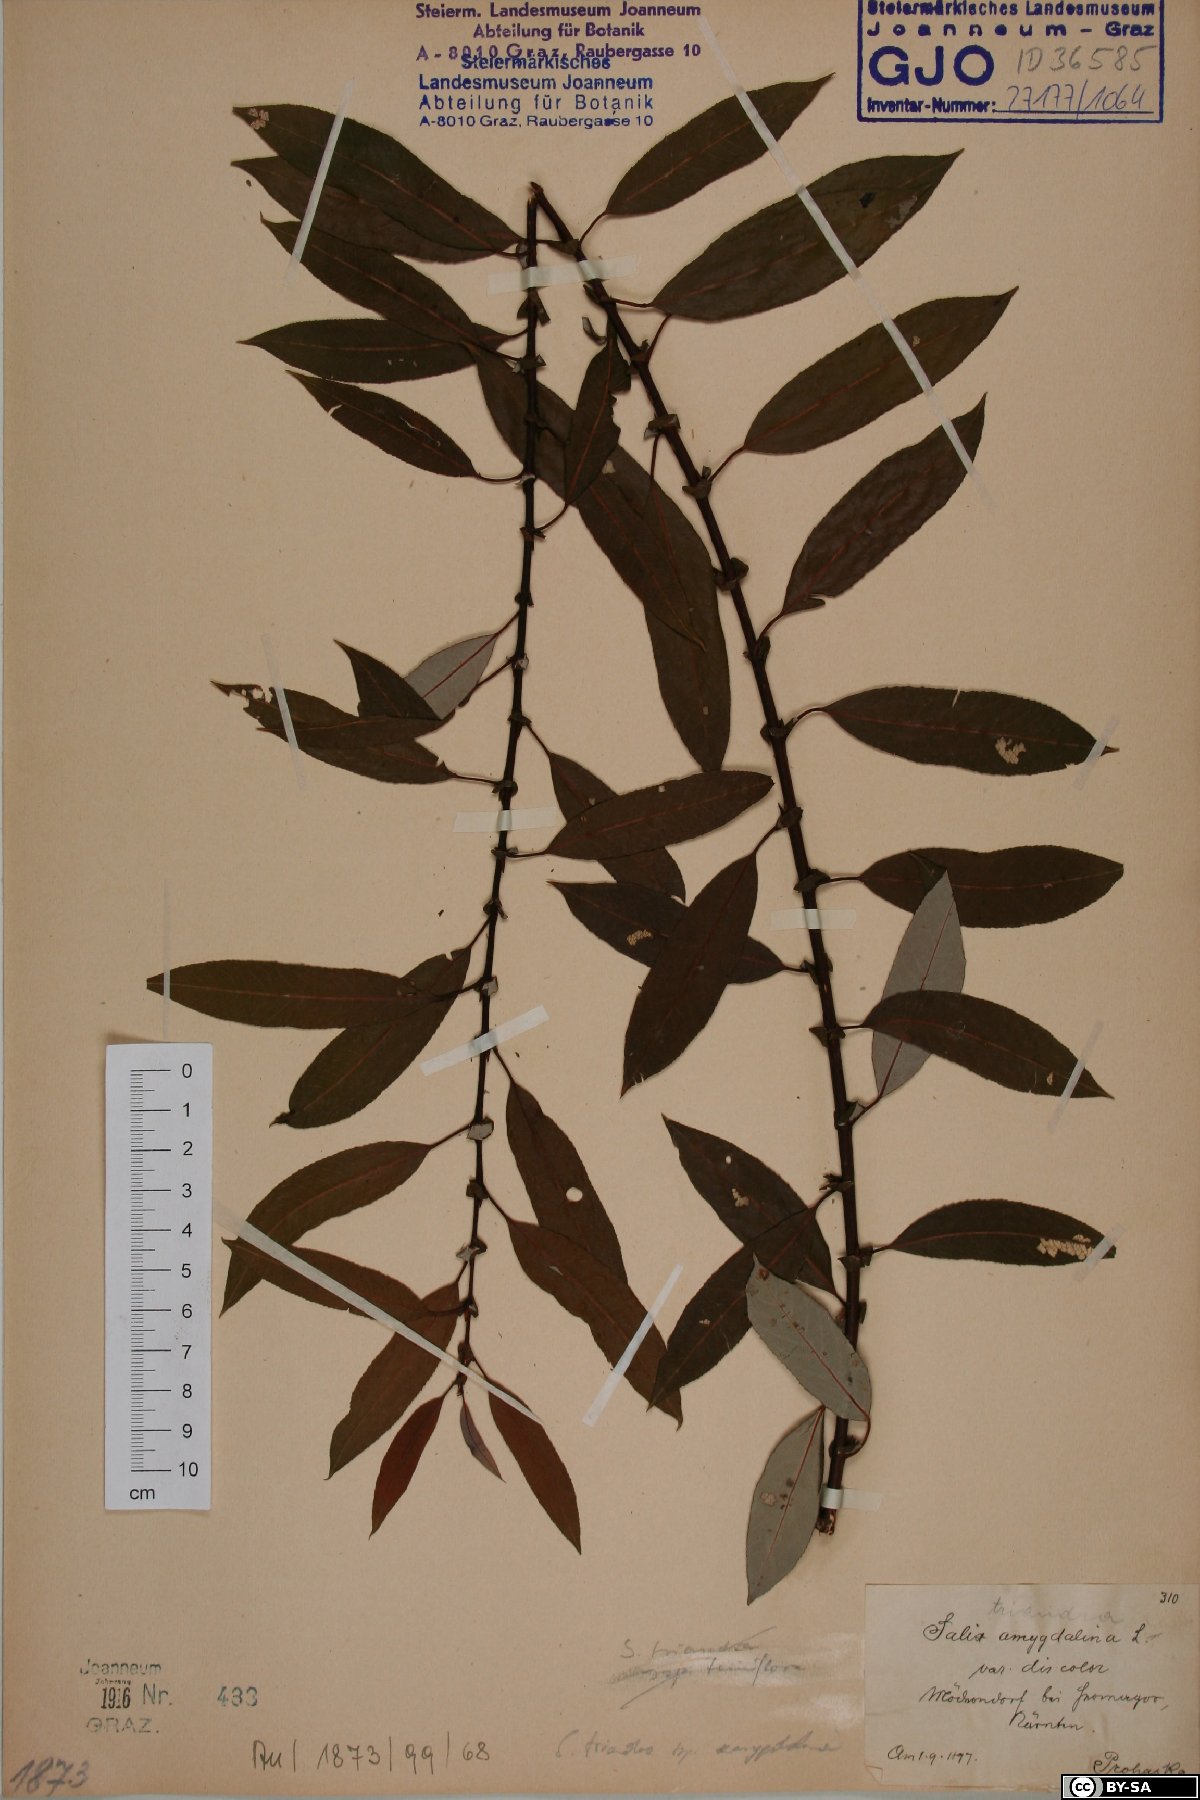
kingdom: Plantae
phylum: Tracheophyta
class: Magnoliopsida
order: Malpighiales
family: Salicaceae
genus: Salix
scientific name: Salix triandra
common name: Almond willow
